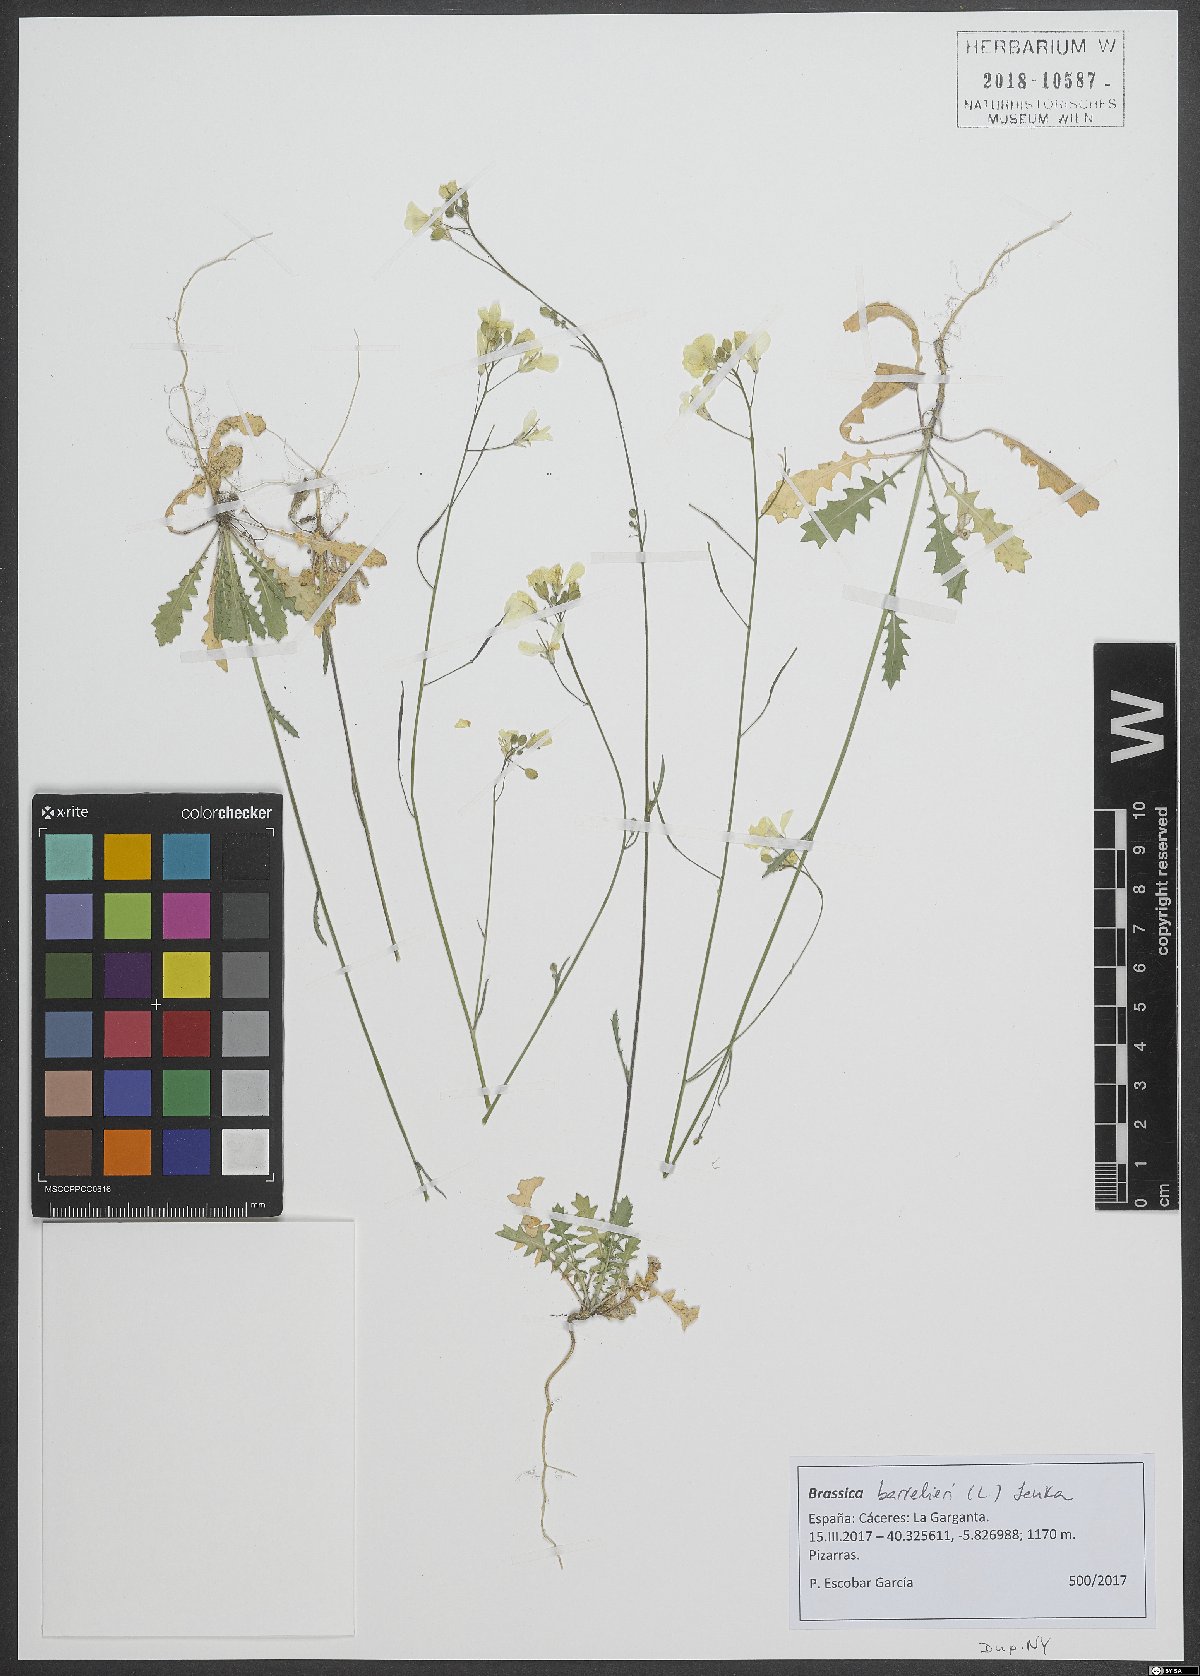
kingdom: Plantae
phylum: Tracheophyta
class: Magnoliopsida
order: Brassicales
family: Brassicaceae
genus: Brassica
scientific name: Brassica barrelieri
